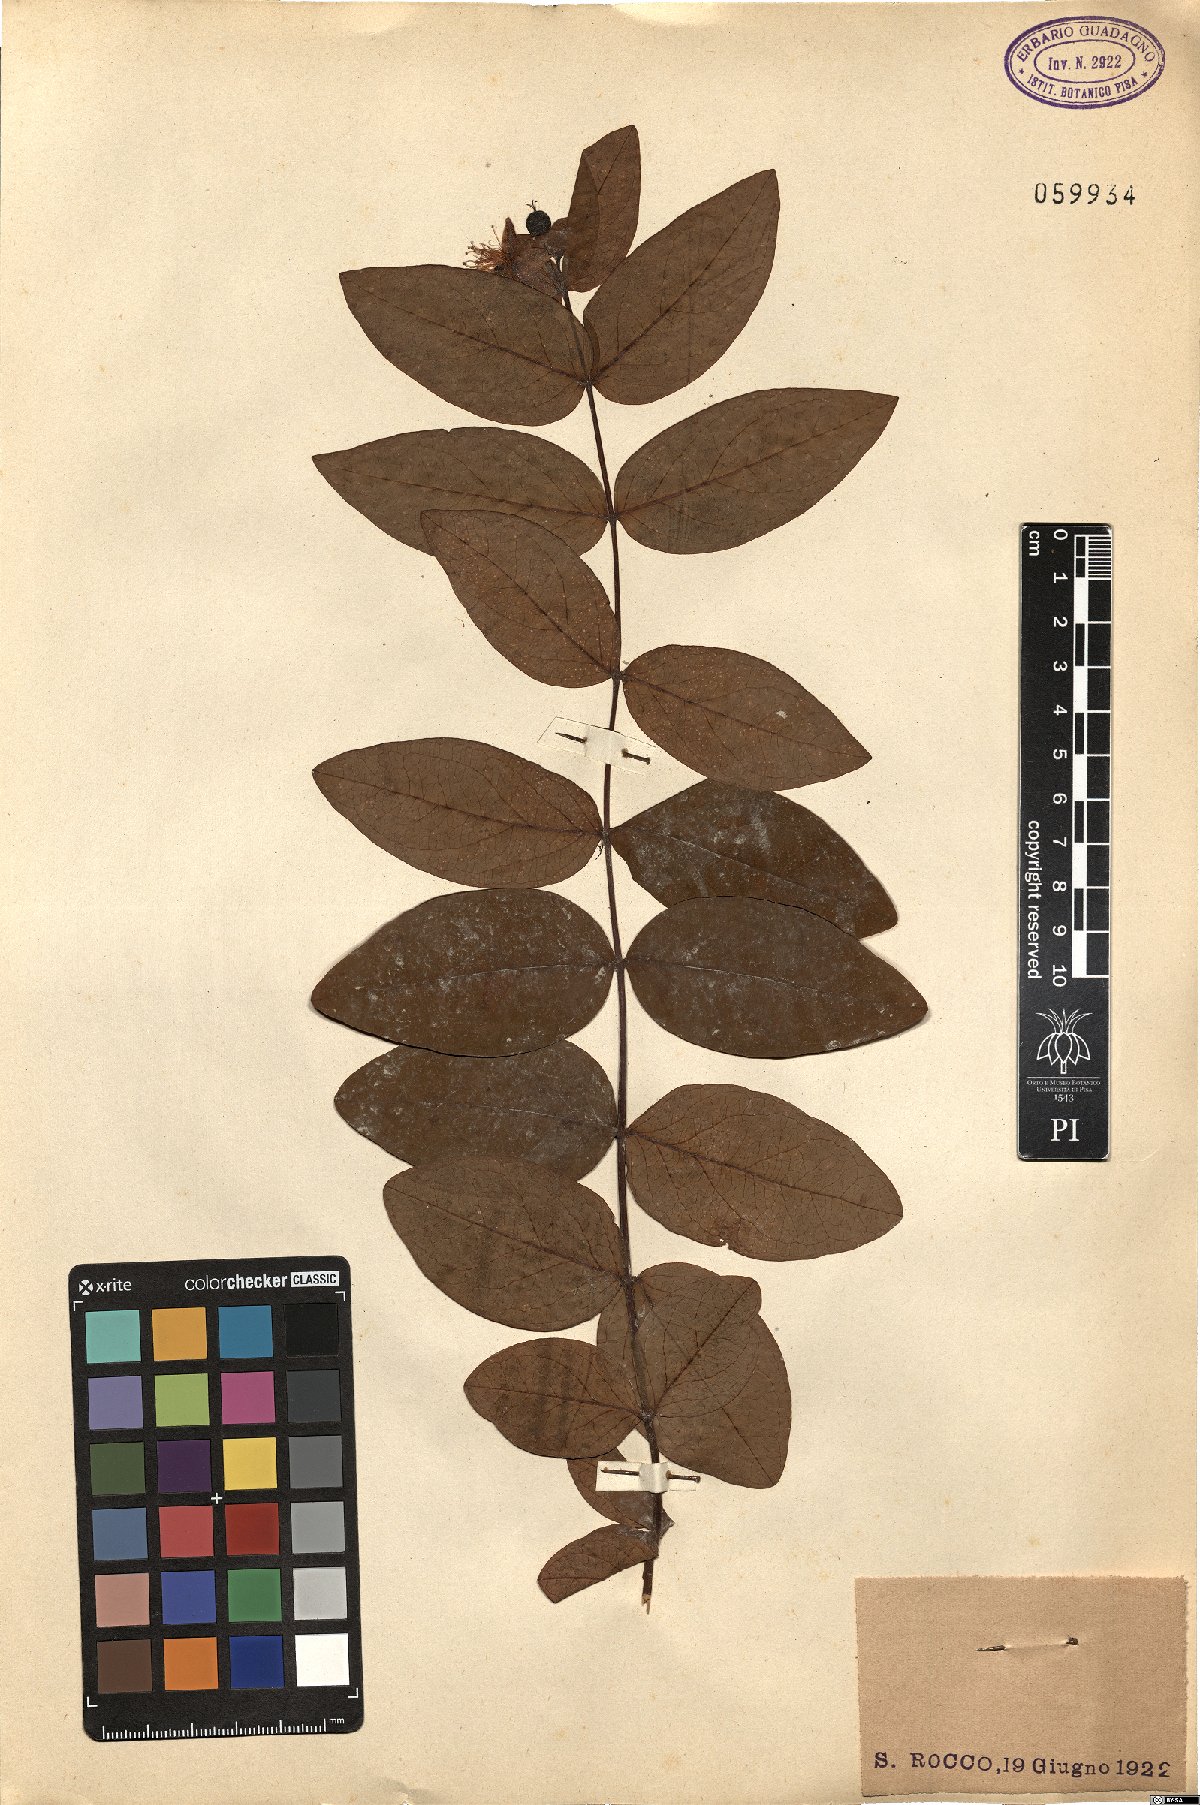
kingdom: Plantae
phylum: Tracheophyta
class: Magnoliopsida
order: Malpighiales
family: Hypericaceae
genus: Hypericum
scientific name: Hypericum androsaemum
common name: Sweet-amber
